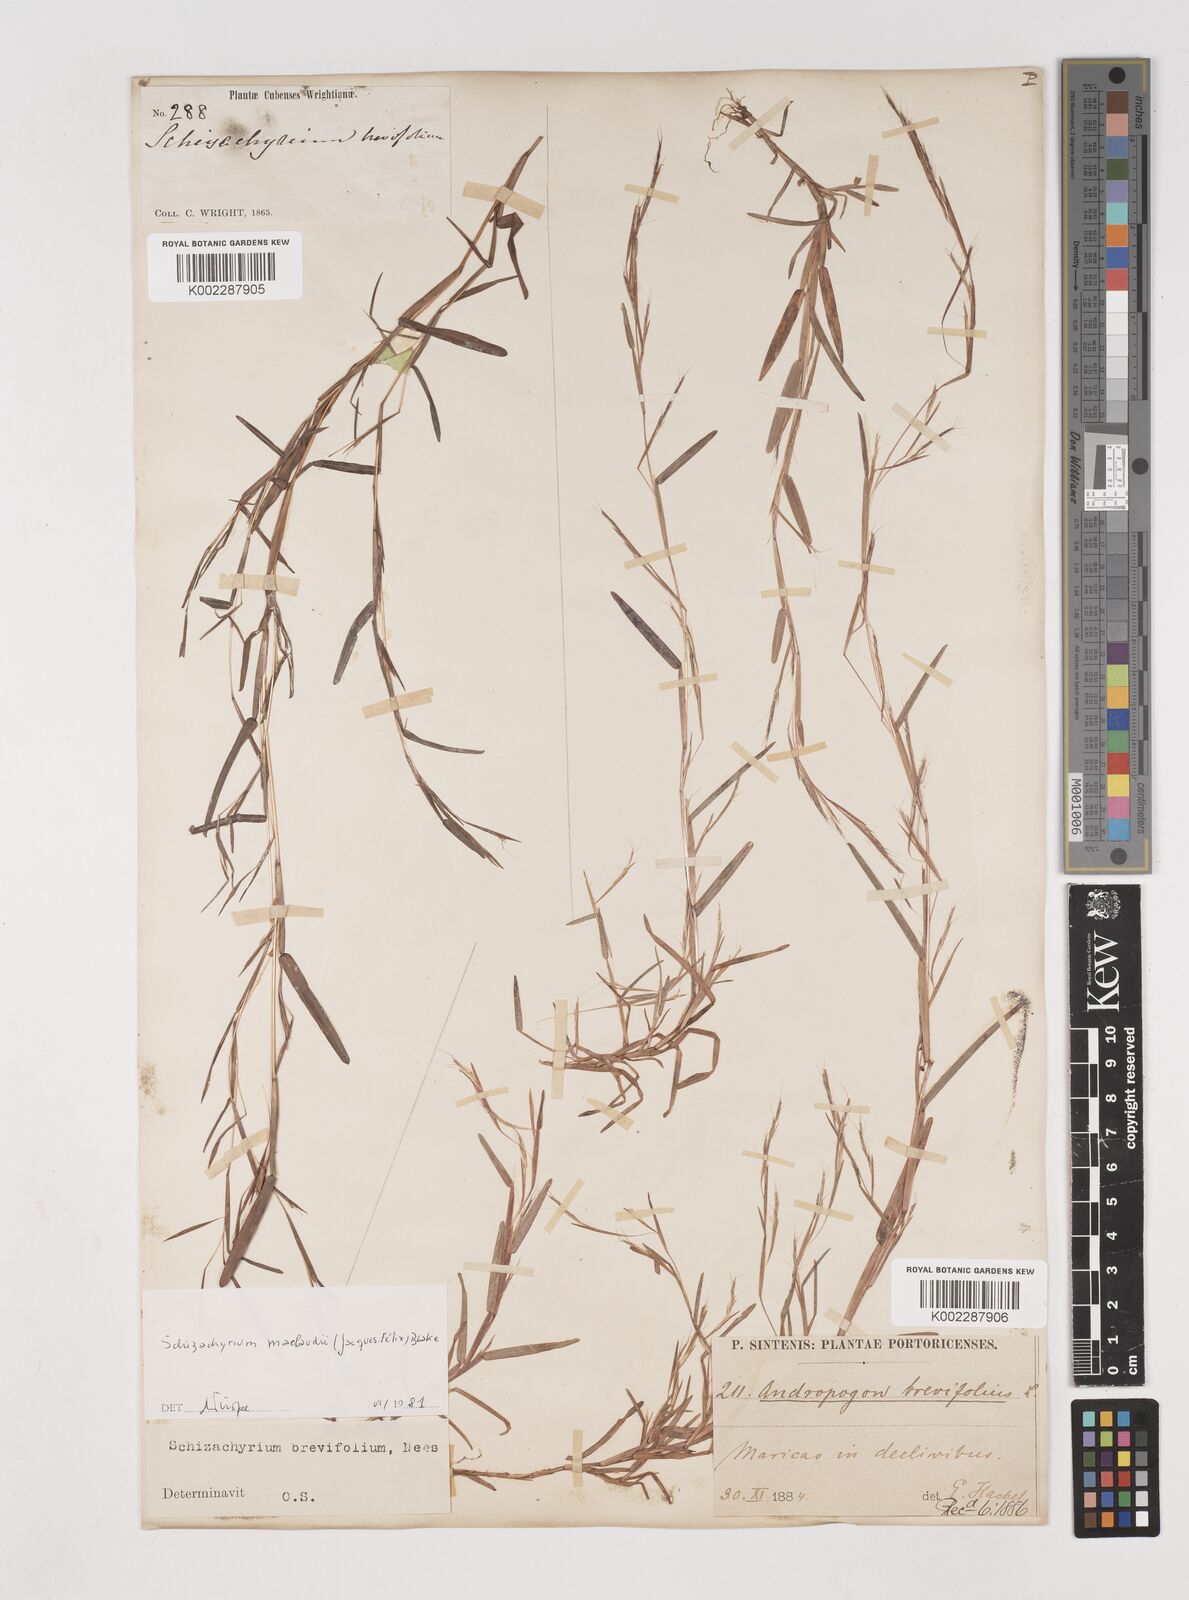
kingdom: Plantae
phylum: Tracheophyta
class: Liliopsida
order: Poales
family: Poaceae
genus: Schizachyrium
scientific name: Schizachyrium brevifolium
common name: Serillo dulce
